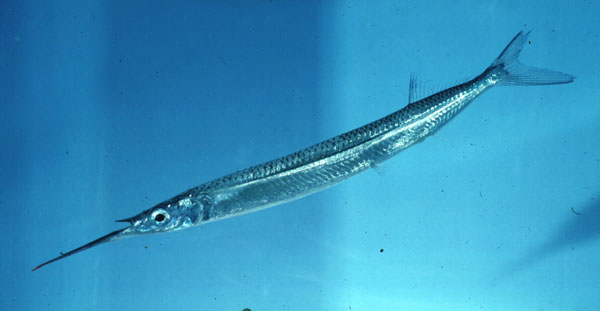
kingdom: Animalia
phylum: Chordata
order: Beloniformes
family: Hemiramphidae
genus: Hemiramphus
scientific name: Hemiramphus
